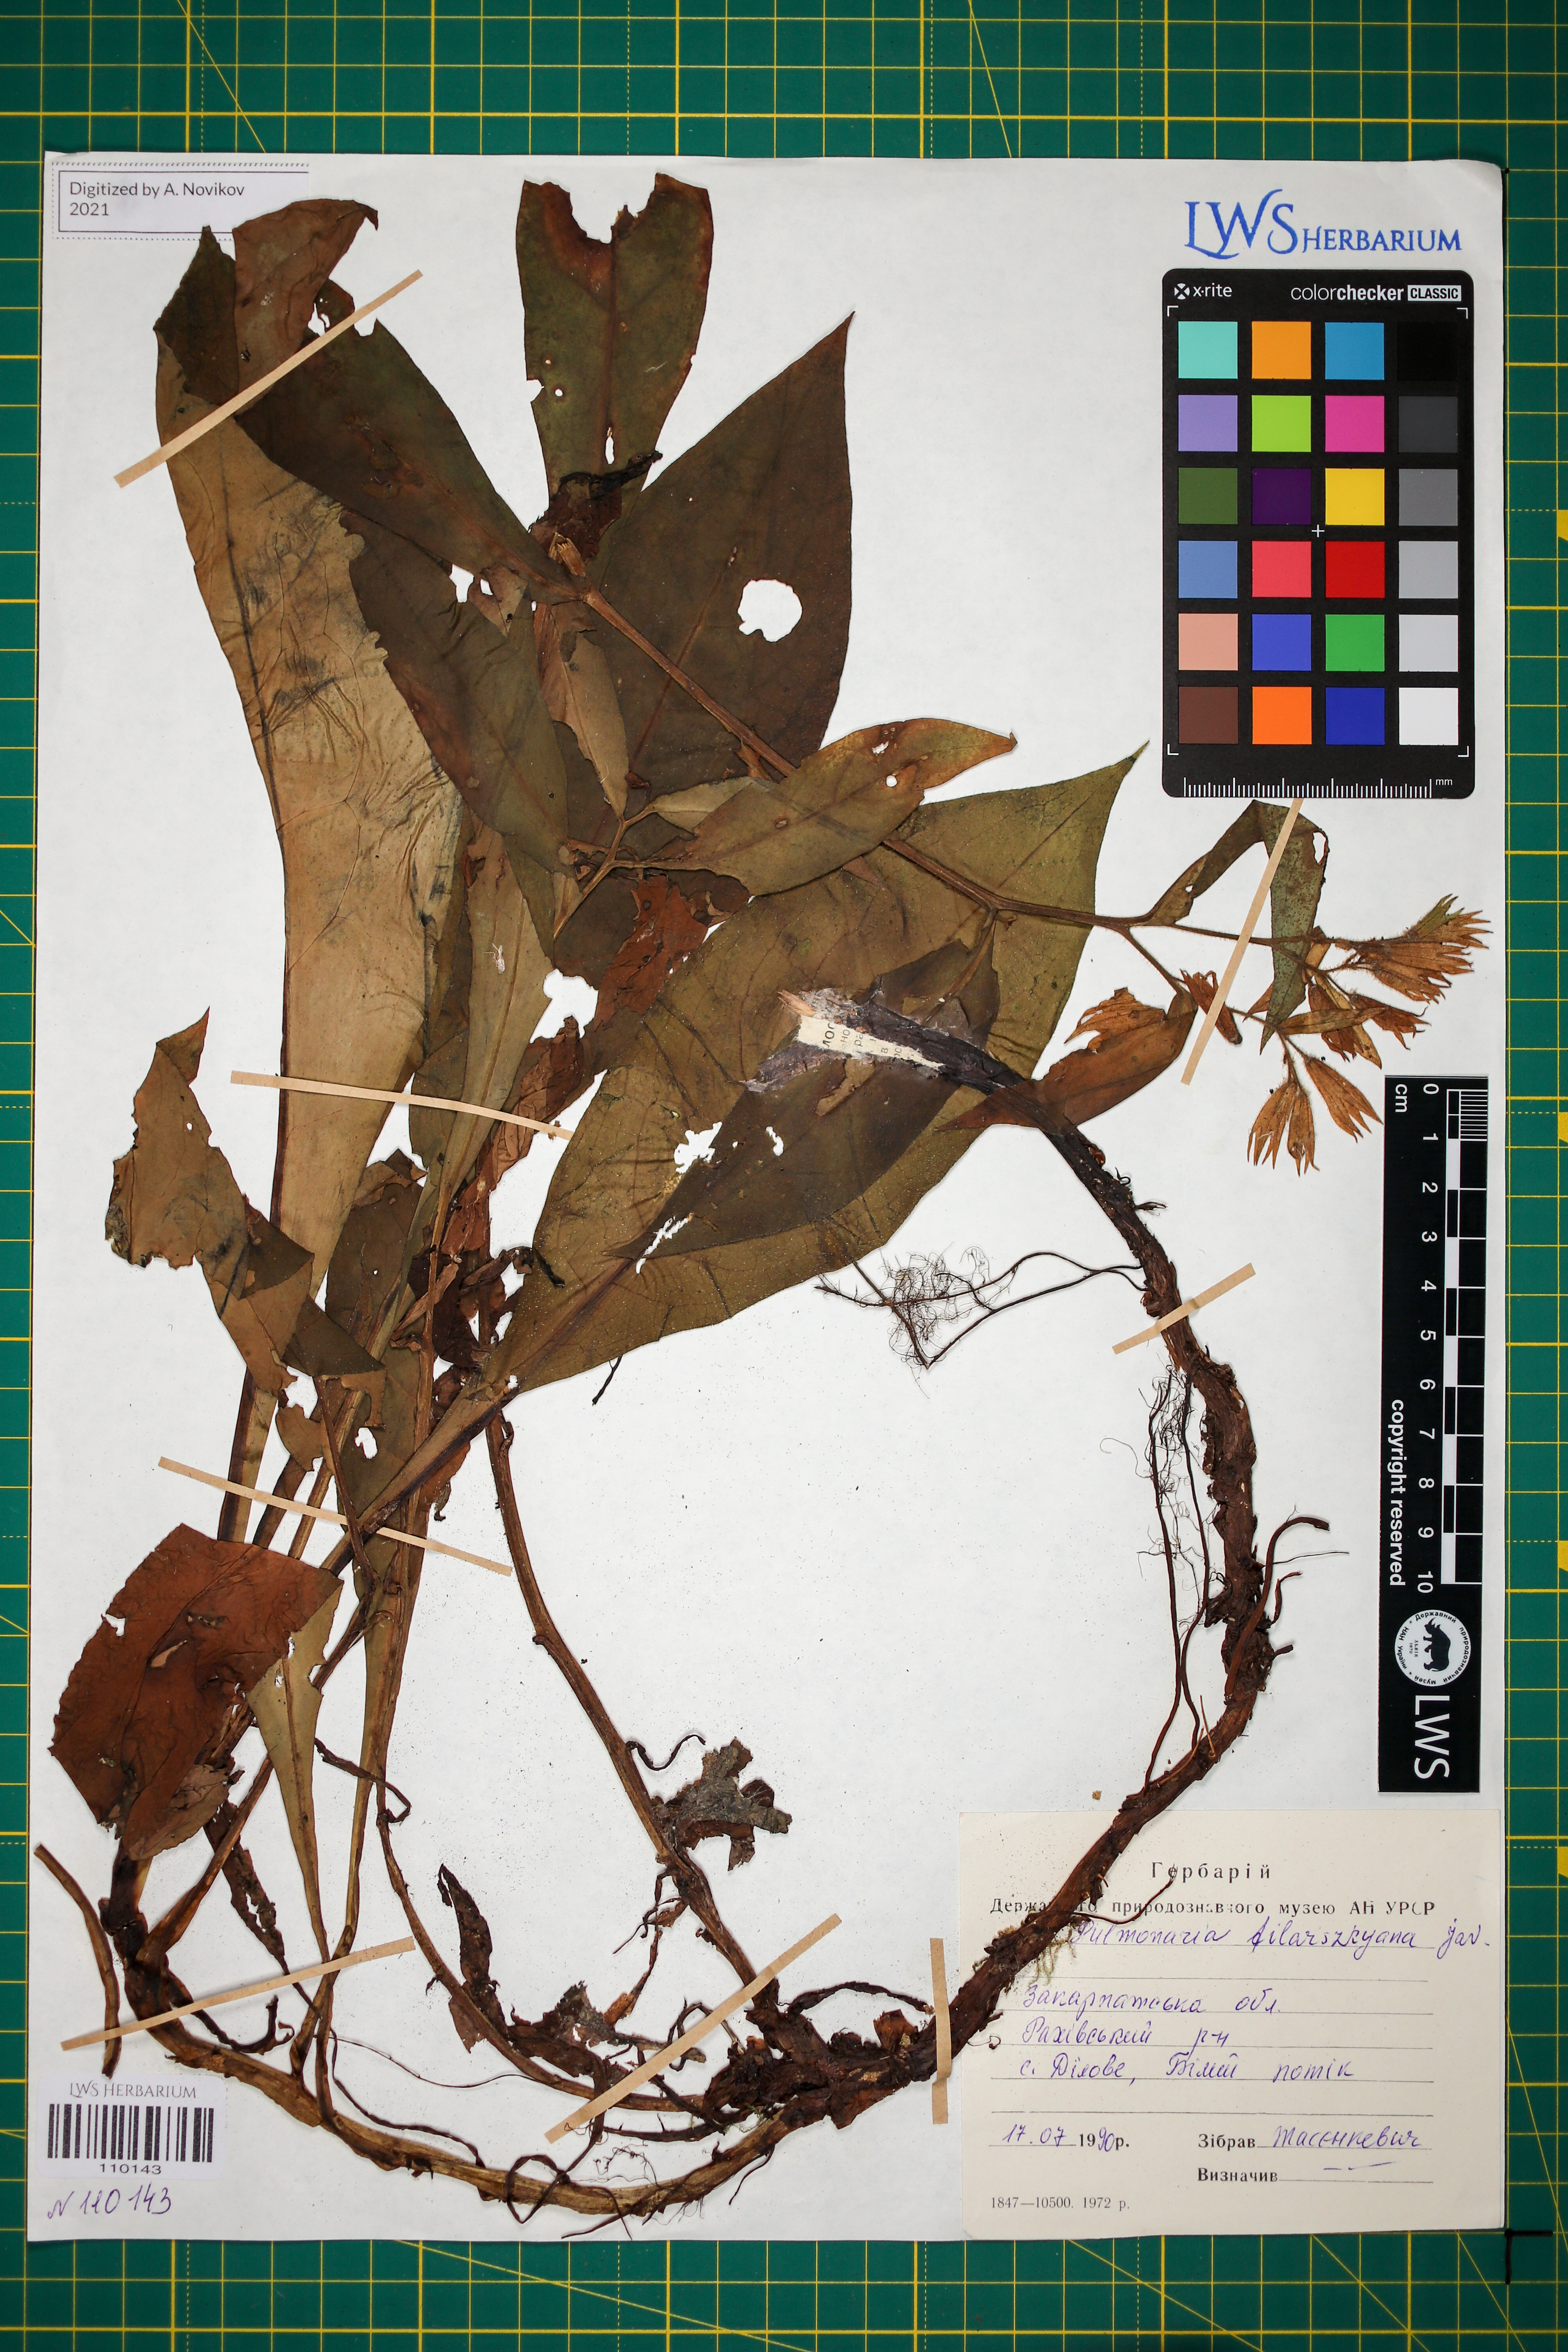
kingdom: Plantae
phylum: Tracheophyta
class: Magnoliopsida
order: Boraginales
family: Boraginaceae
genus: Pulmonaria
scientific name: Pulmonaria filarszkyana
